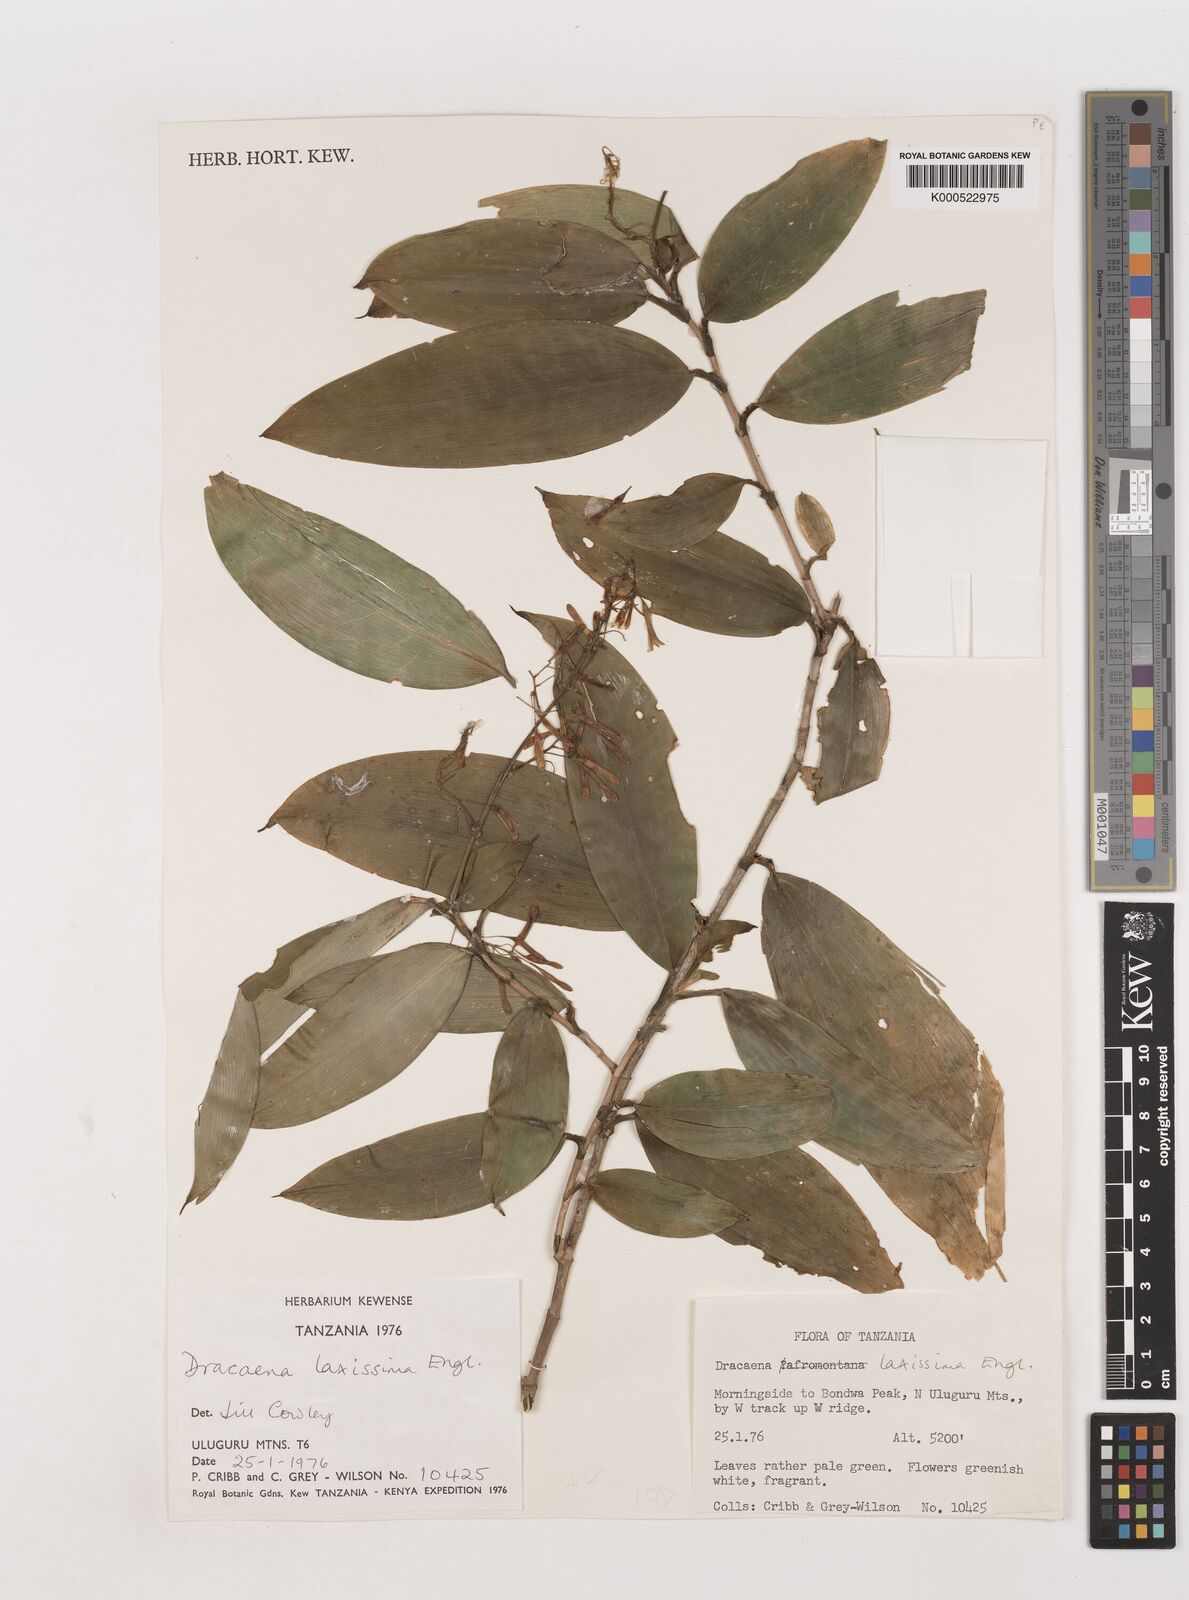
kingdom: Plantae
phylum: Tracheophyta
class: Liliopsida
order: Asparagales
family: Asparagaceae
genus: Dracaena
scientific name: Dracaena laxissima
